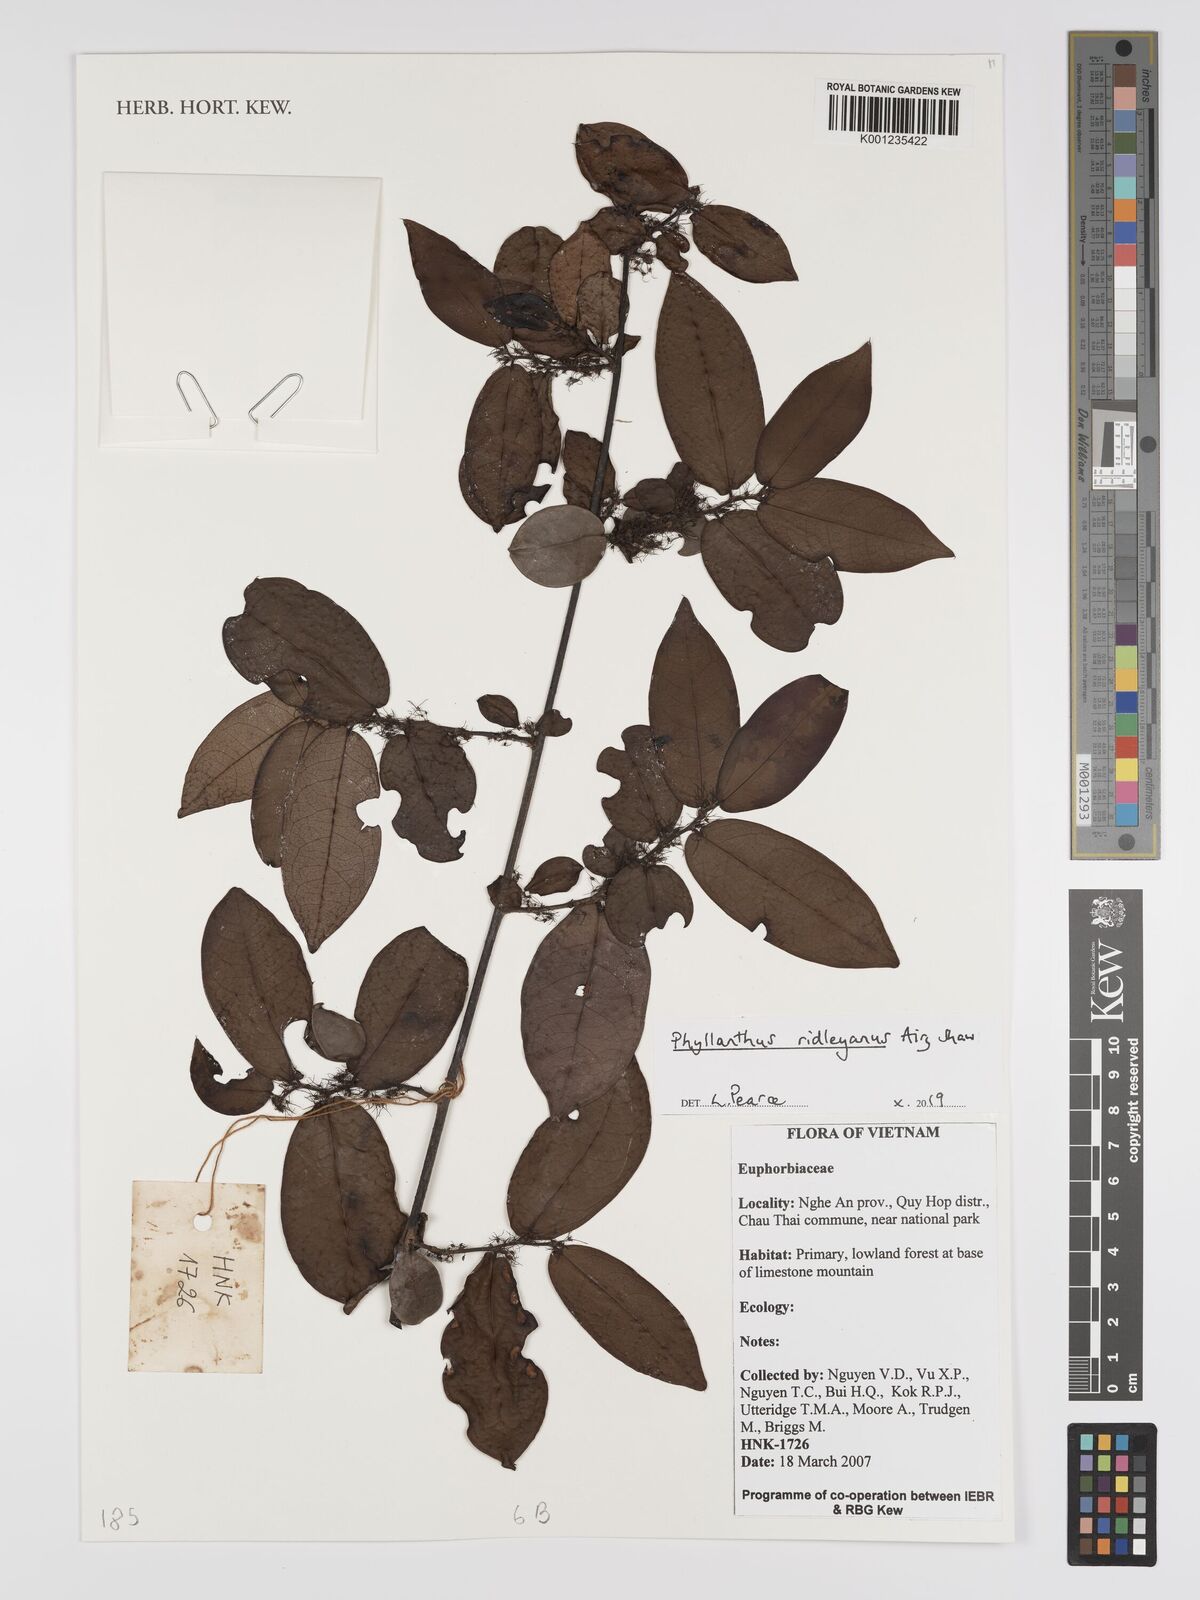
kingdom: Plantae
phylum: Tracheophyta
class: Magnoliopsida
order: Malpighiales
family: Phyllanthaceae
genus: Phyllanthus
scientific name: Phyllanthus ridleyanus
